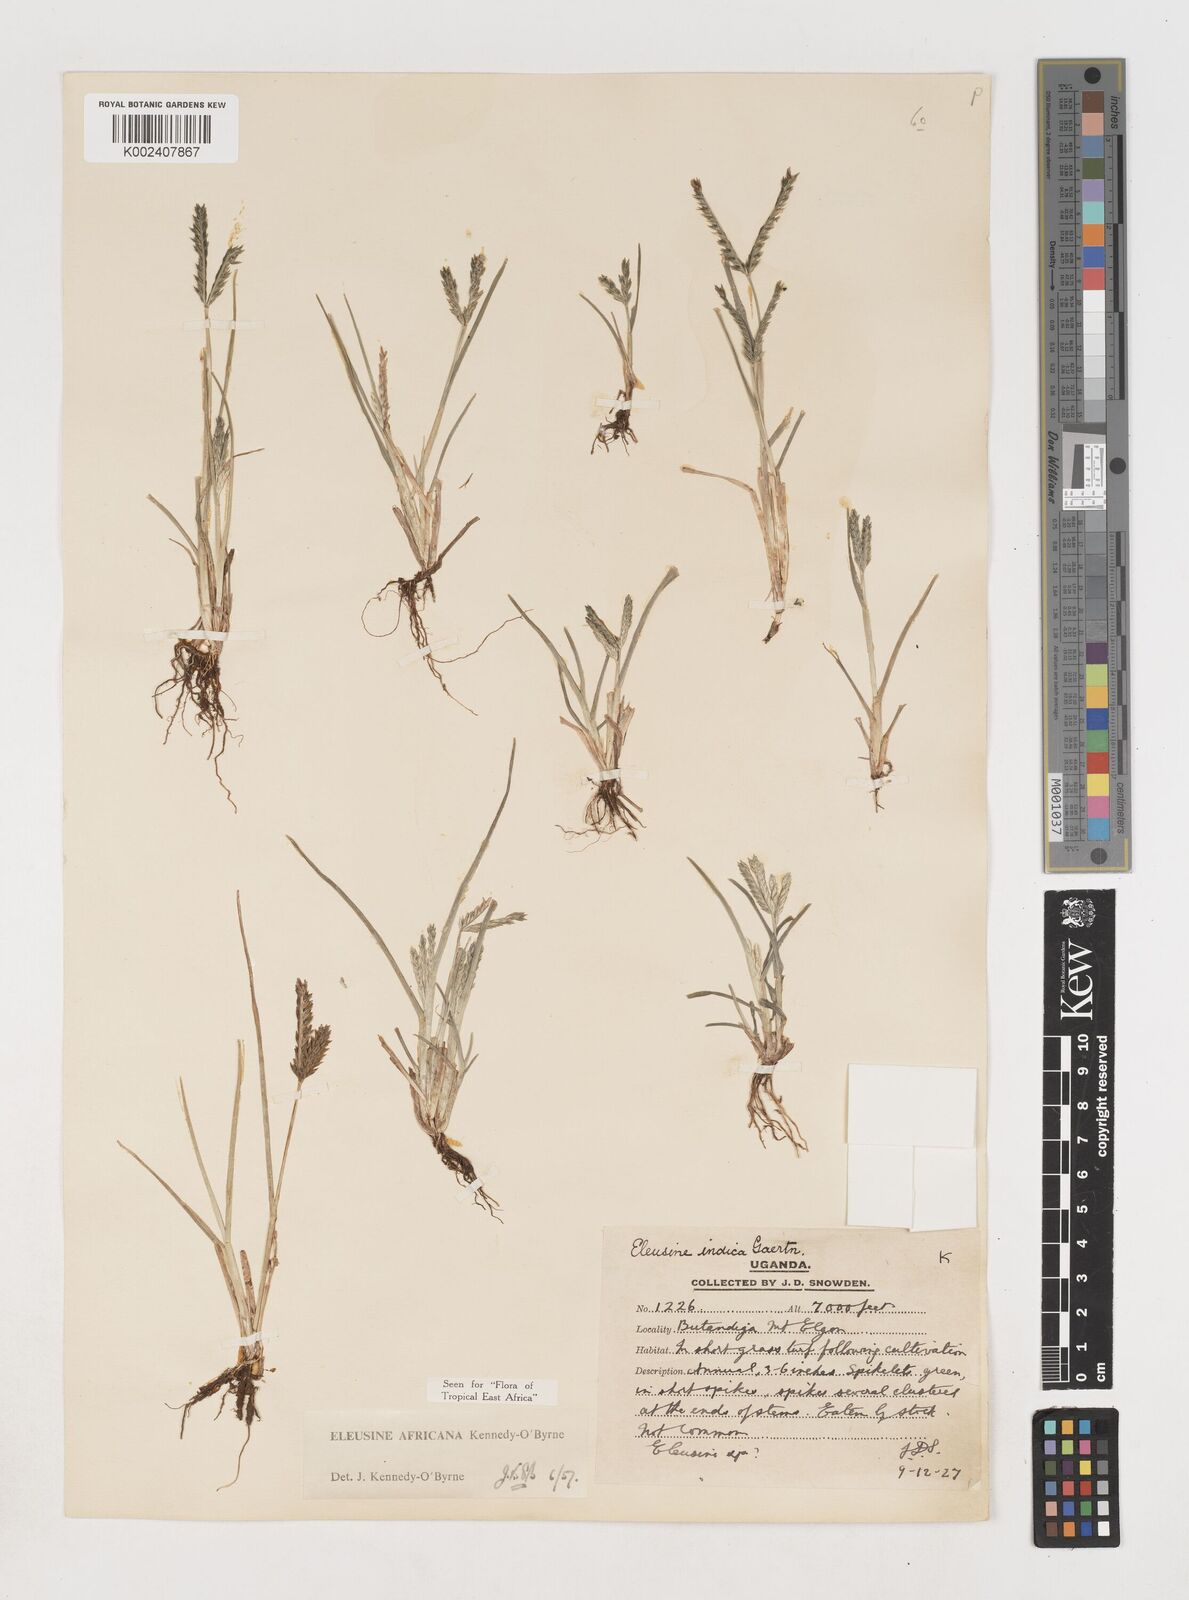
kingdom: Plantae
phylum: Tracheophyta
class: Liliopsida
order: Poales
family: Poaceae
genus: Eleusine
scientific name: Eleusine africana
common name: Wild african finger millet
